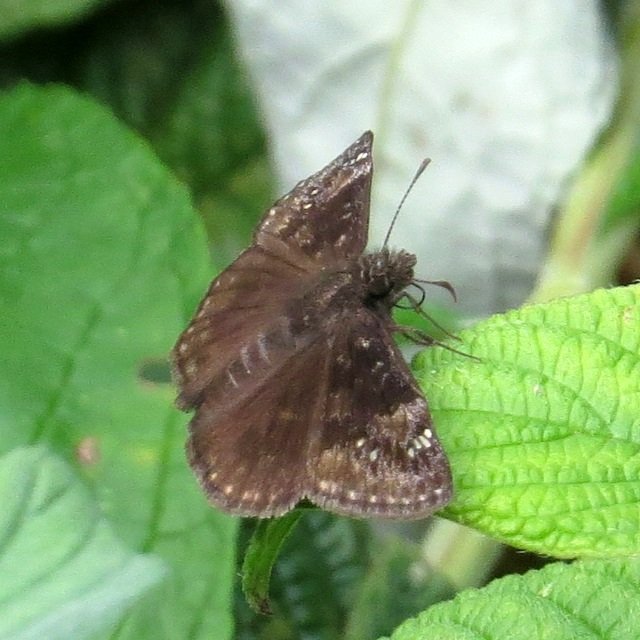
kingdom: Animalia
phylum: Arthropoda
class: Insecta
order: Lepidoptera
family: Hesperiidae
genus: Gesta
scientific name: Gesta
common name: Wild Indigo Duskywing
